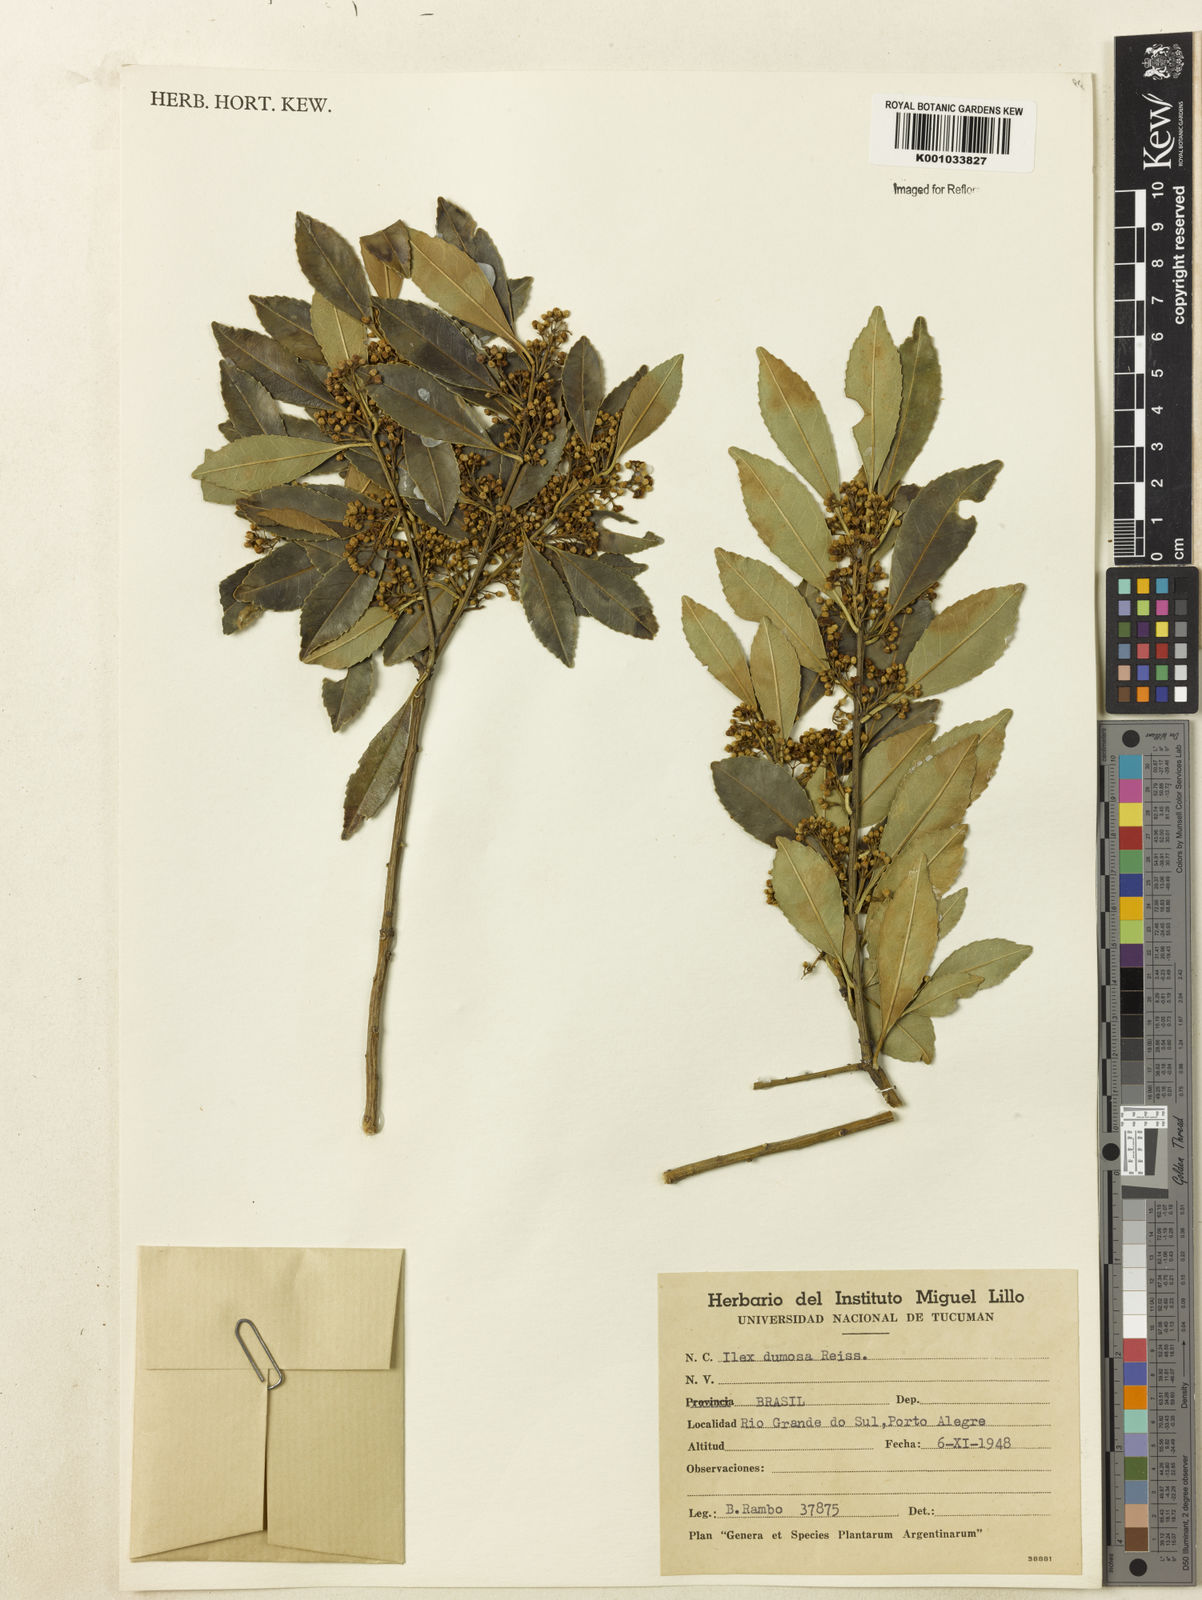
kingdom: Plantae
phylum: Tracheophyta
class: Magnoliopsida
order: Aquifoliales
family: Aquifoliaceae
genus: Ilex
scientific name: Ilex dumosa
